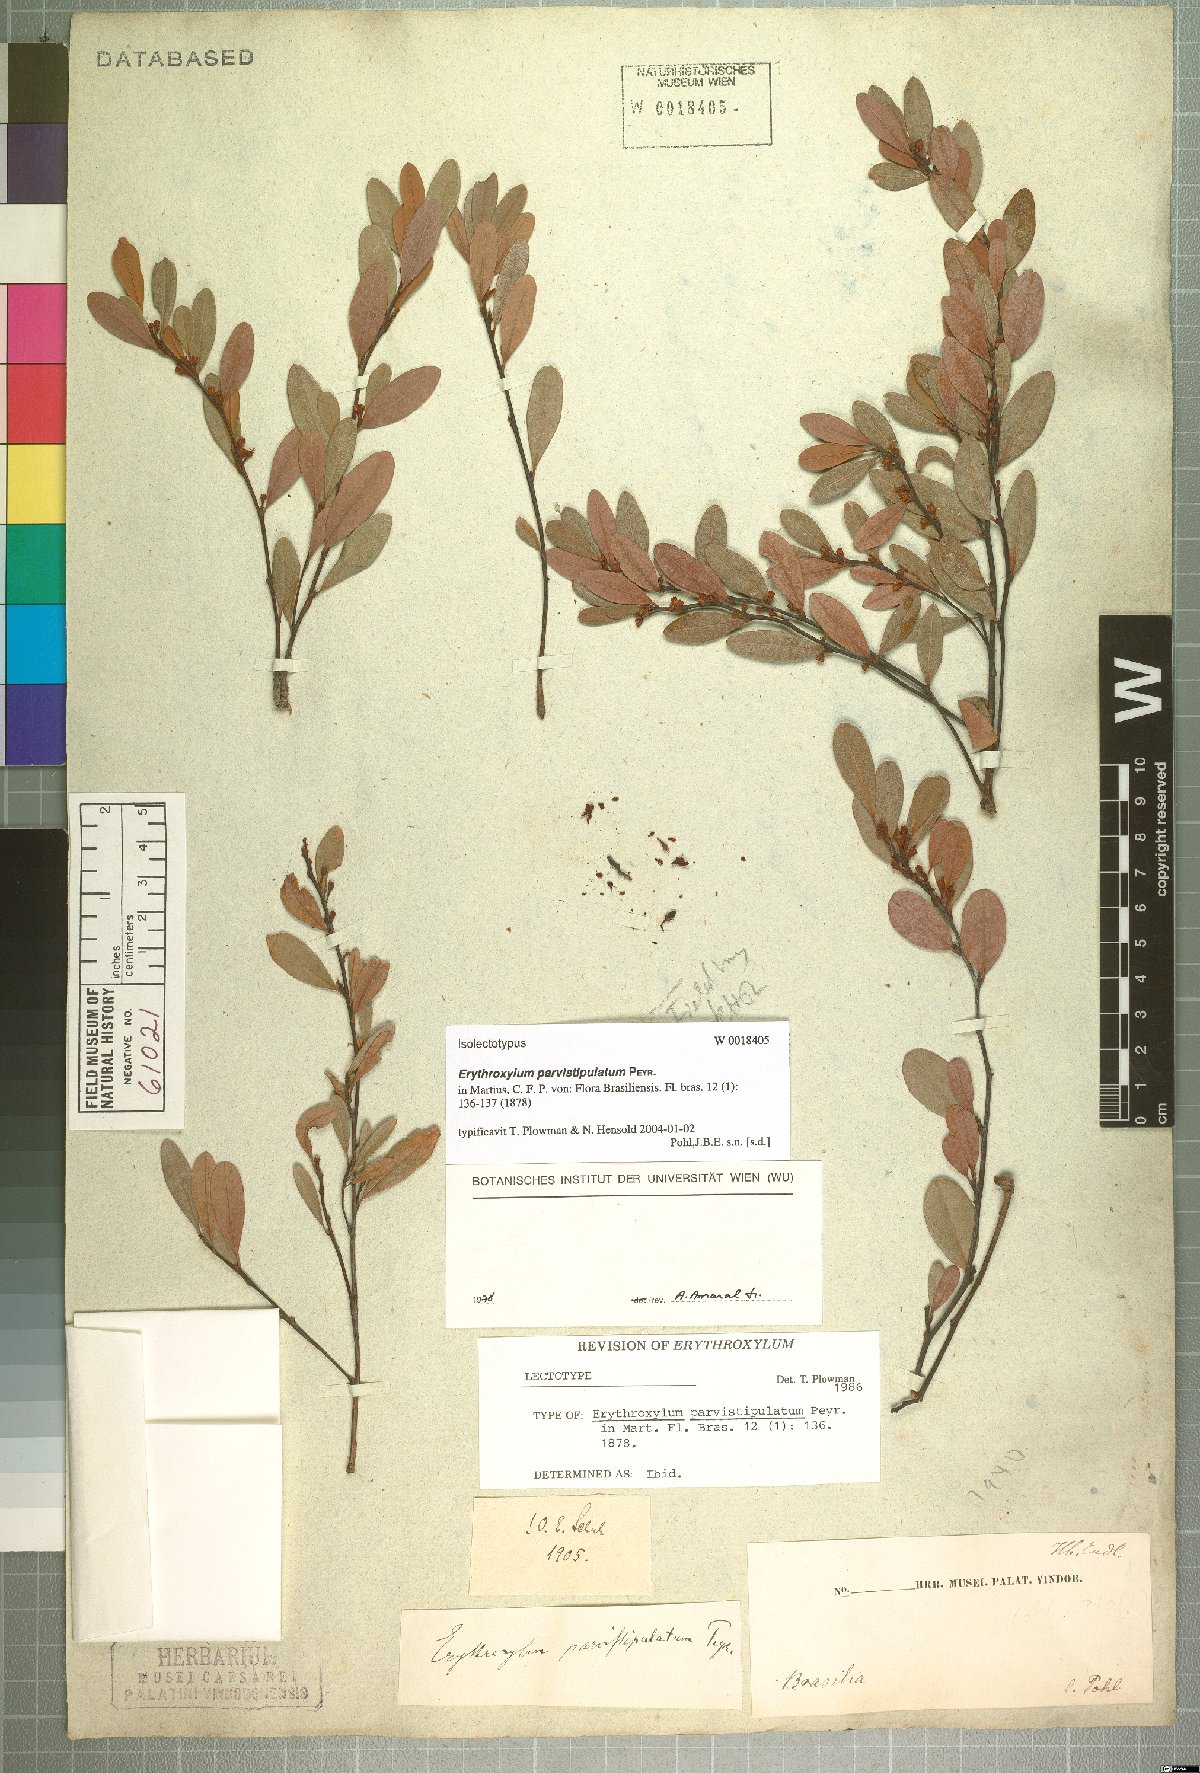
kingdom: Plantae
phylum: Tracheophyta
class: Magnoliopsida
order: Malpighiales
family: Erythroxylaceae
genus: Erythroxylum
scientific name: Erythroxylum parvistipulatum
